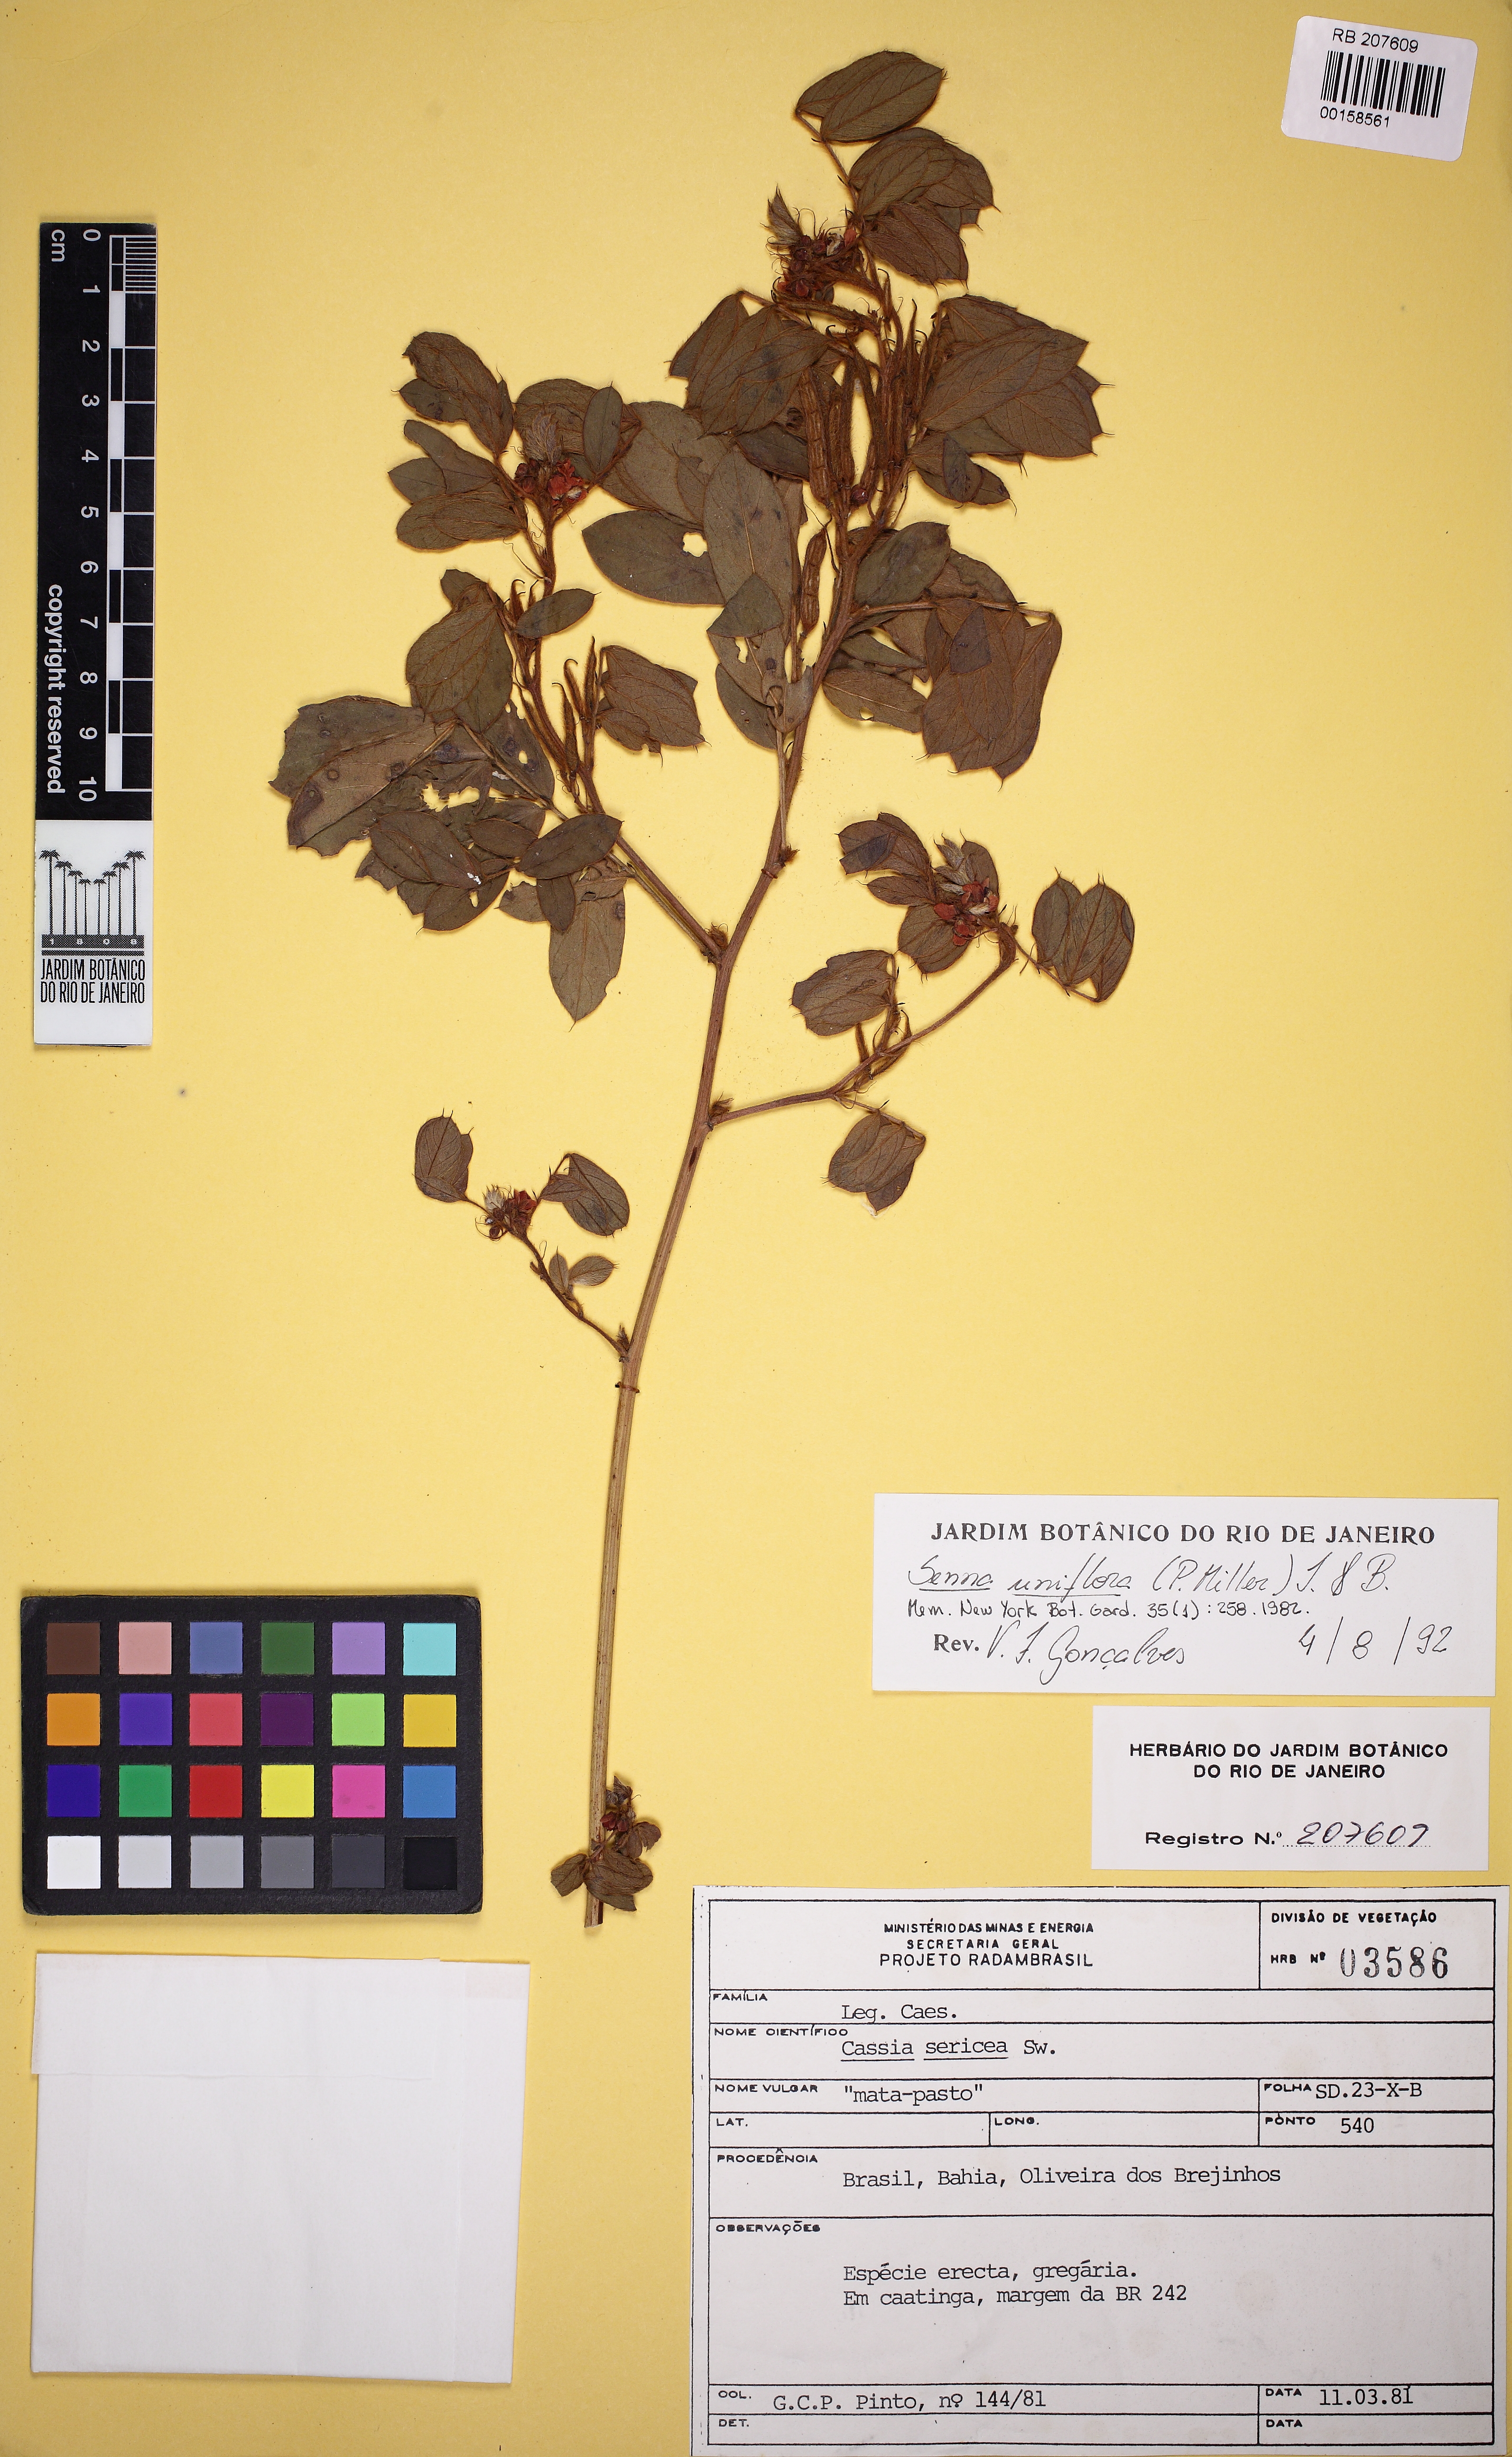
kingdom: Plantae
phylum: Tracheophyta
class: Magnoliopsida
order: Fabales
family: Fabaceae
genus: Senna
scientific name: Senna uniflora
